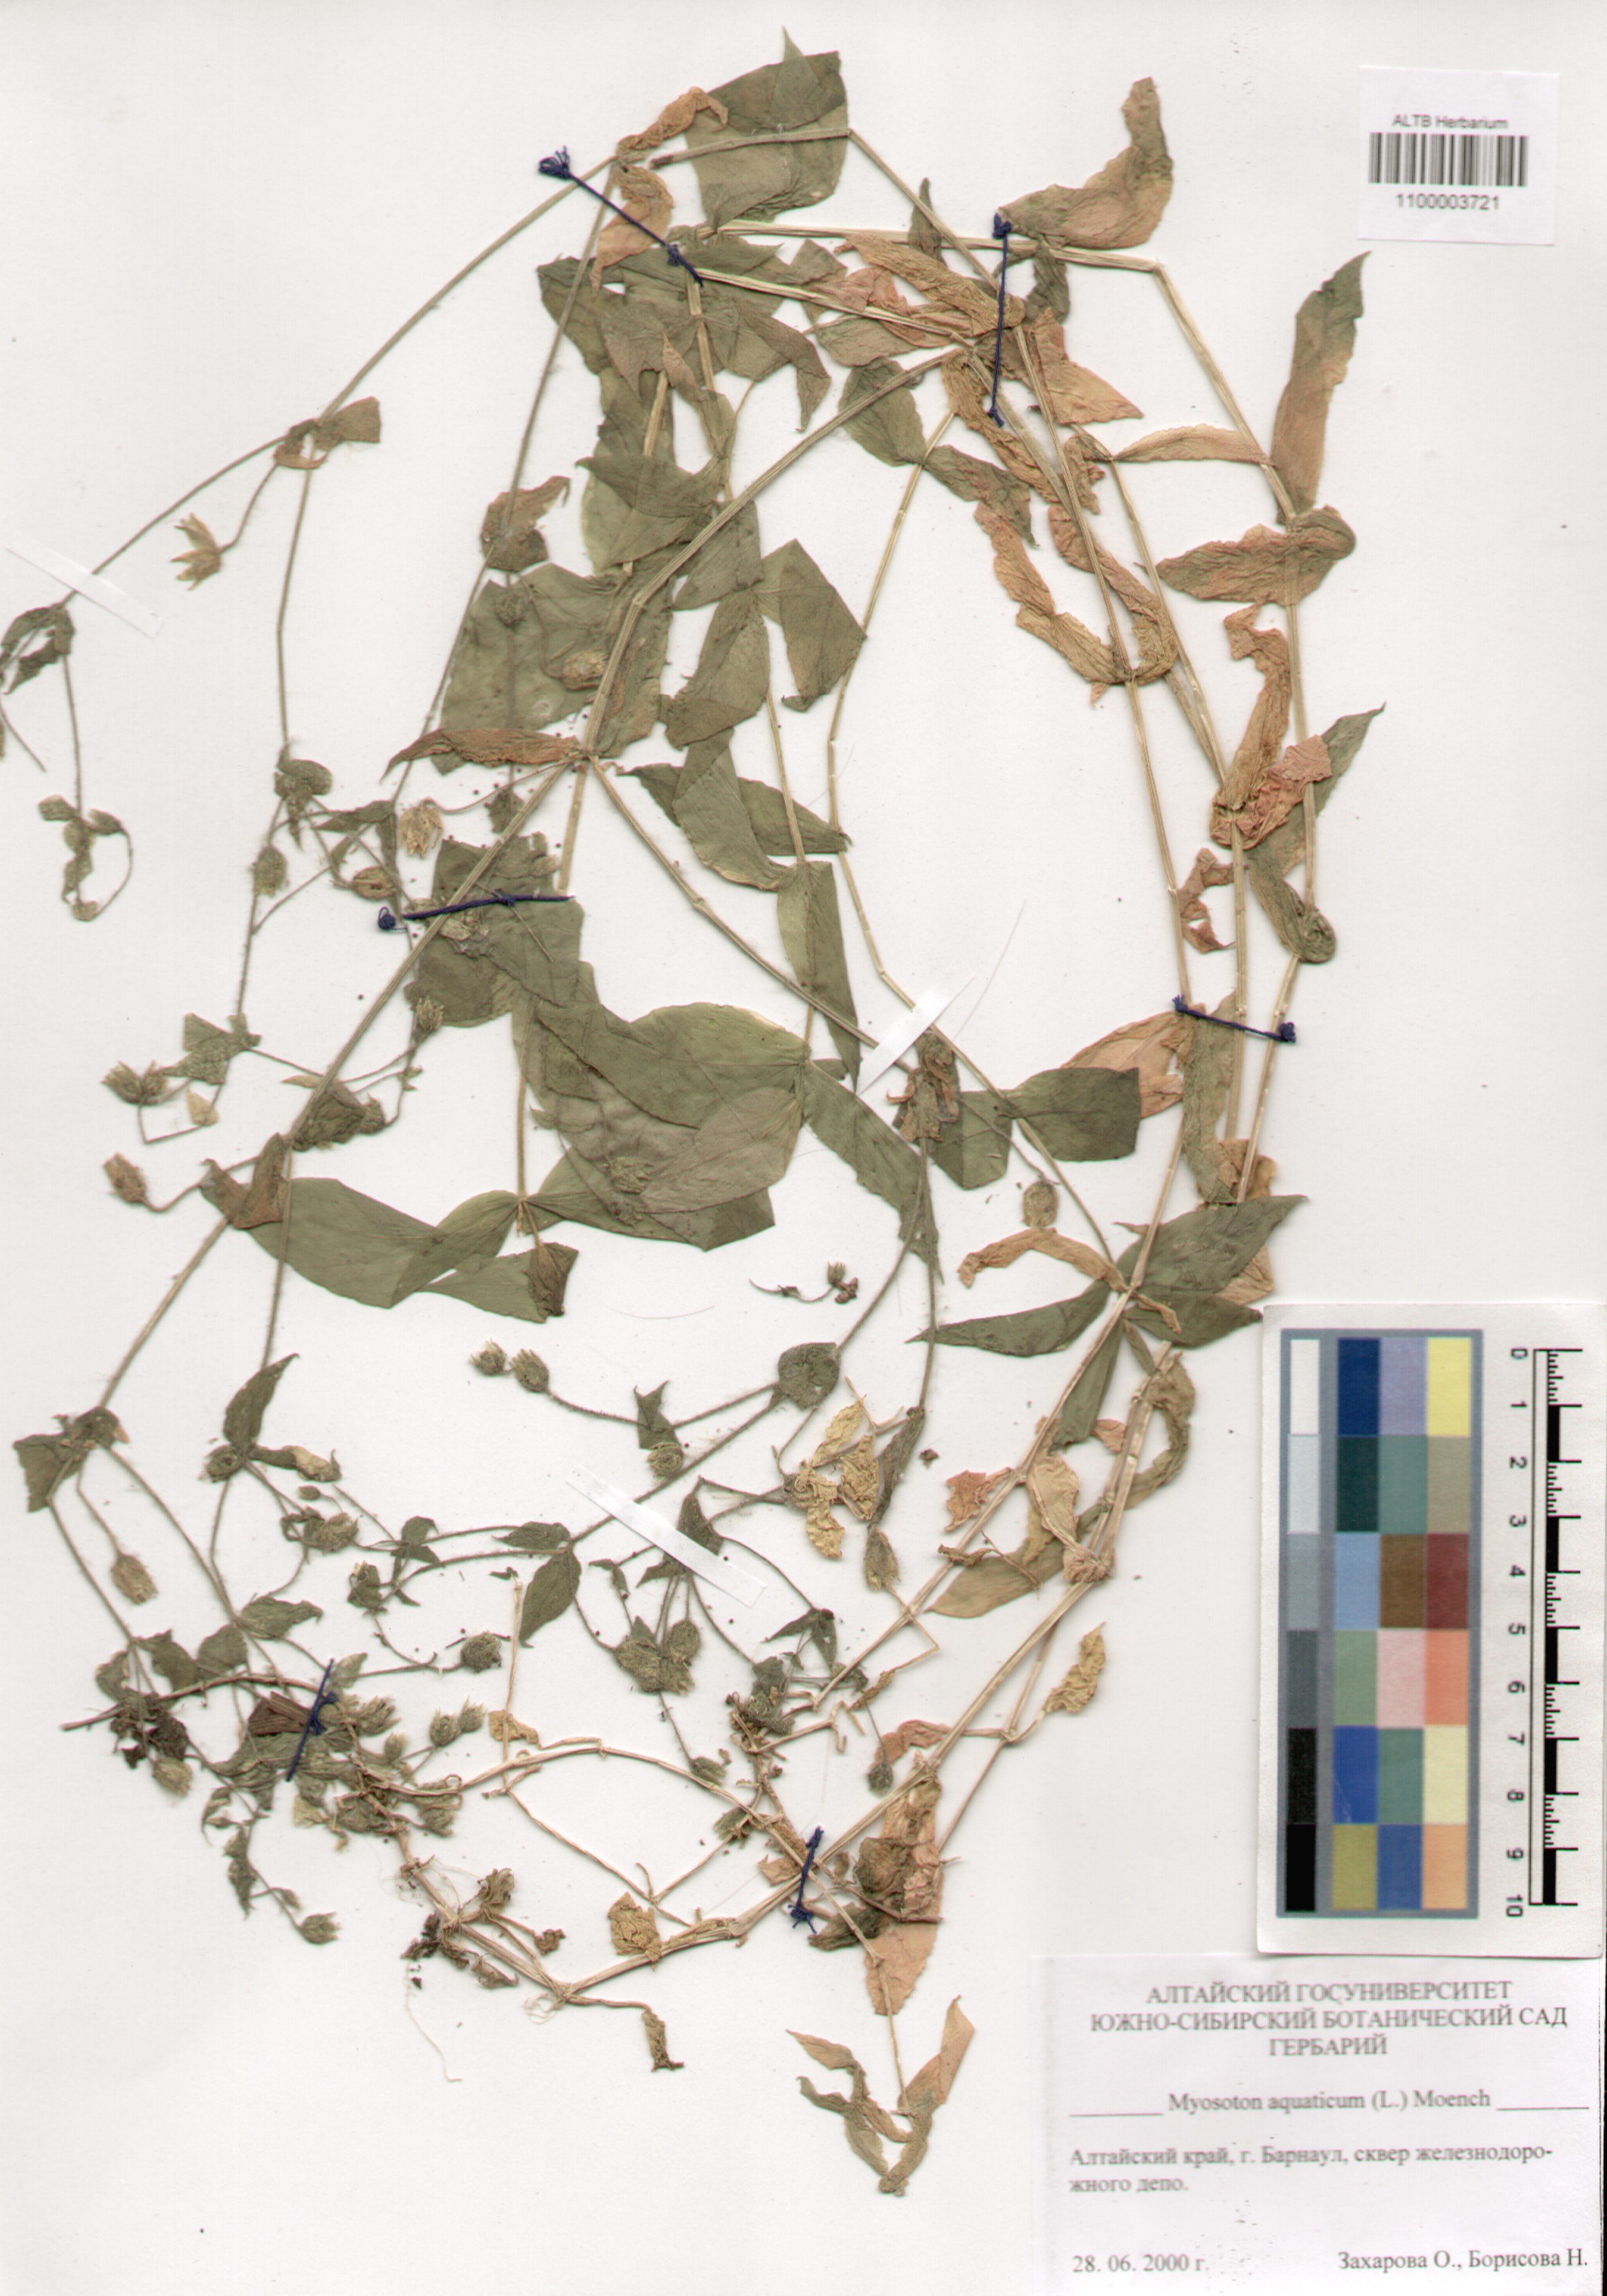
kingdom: Plantae
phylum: Tracheophyta
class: Magnoliopsida
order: Caryophyllales
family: Caryophyllaceae
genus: Stellaria
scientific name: Stellaria aquatica
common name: Water chickweed
